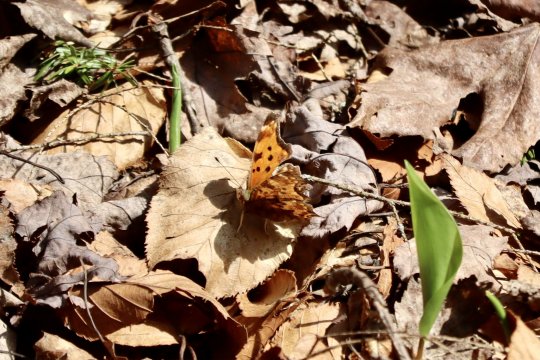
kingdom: Animalia
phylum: Arthropoda
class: Insecta
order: Lepidoptera
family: Nymphalidae
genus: Polygonia
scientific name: Polygonia comma
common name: Eastern Comma
